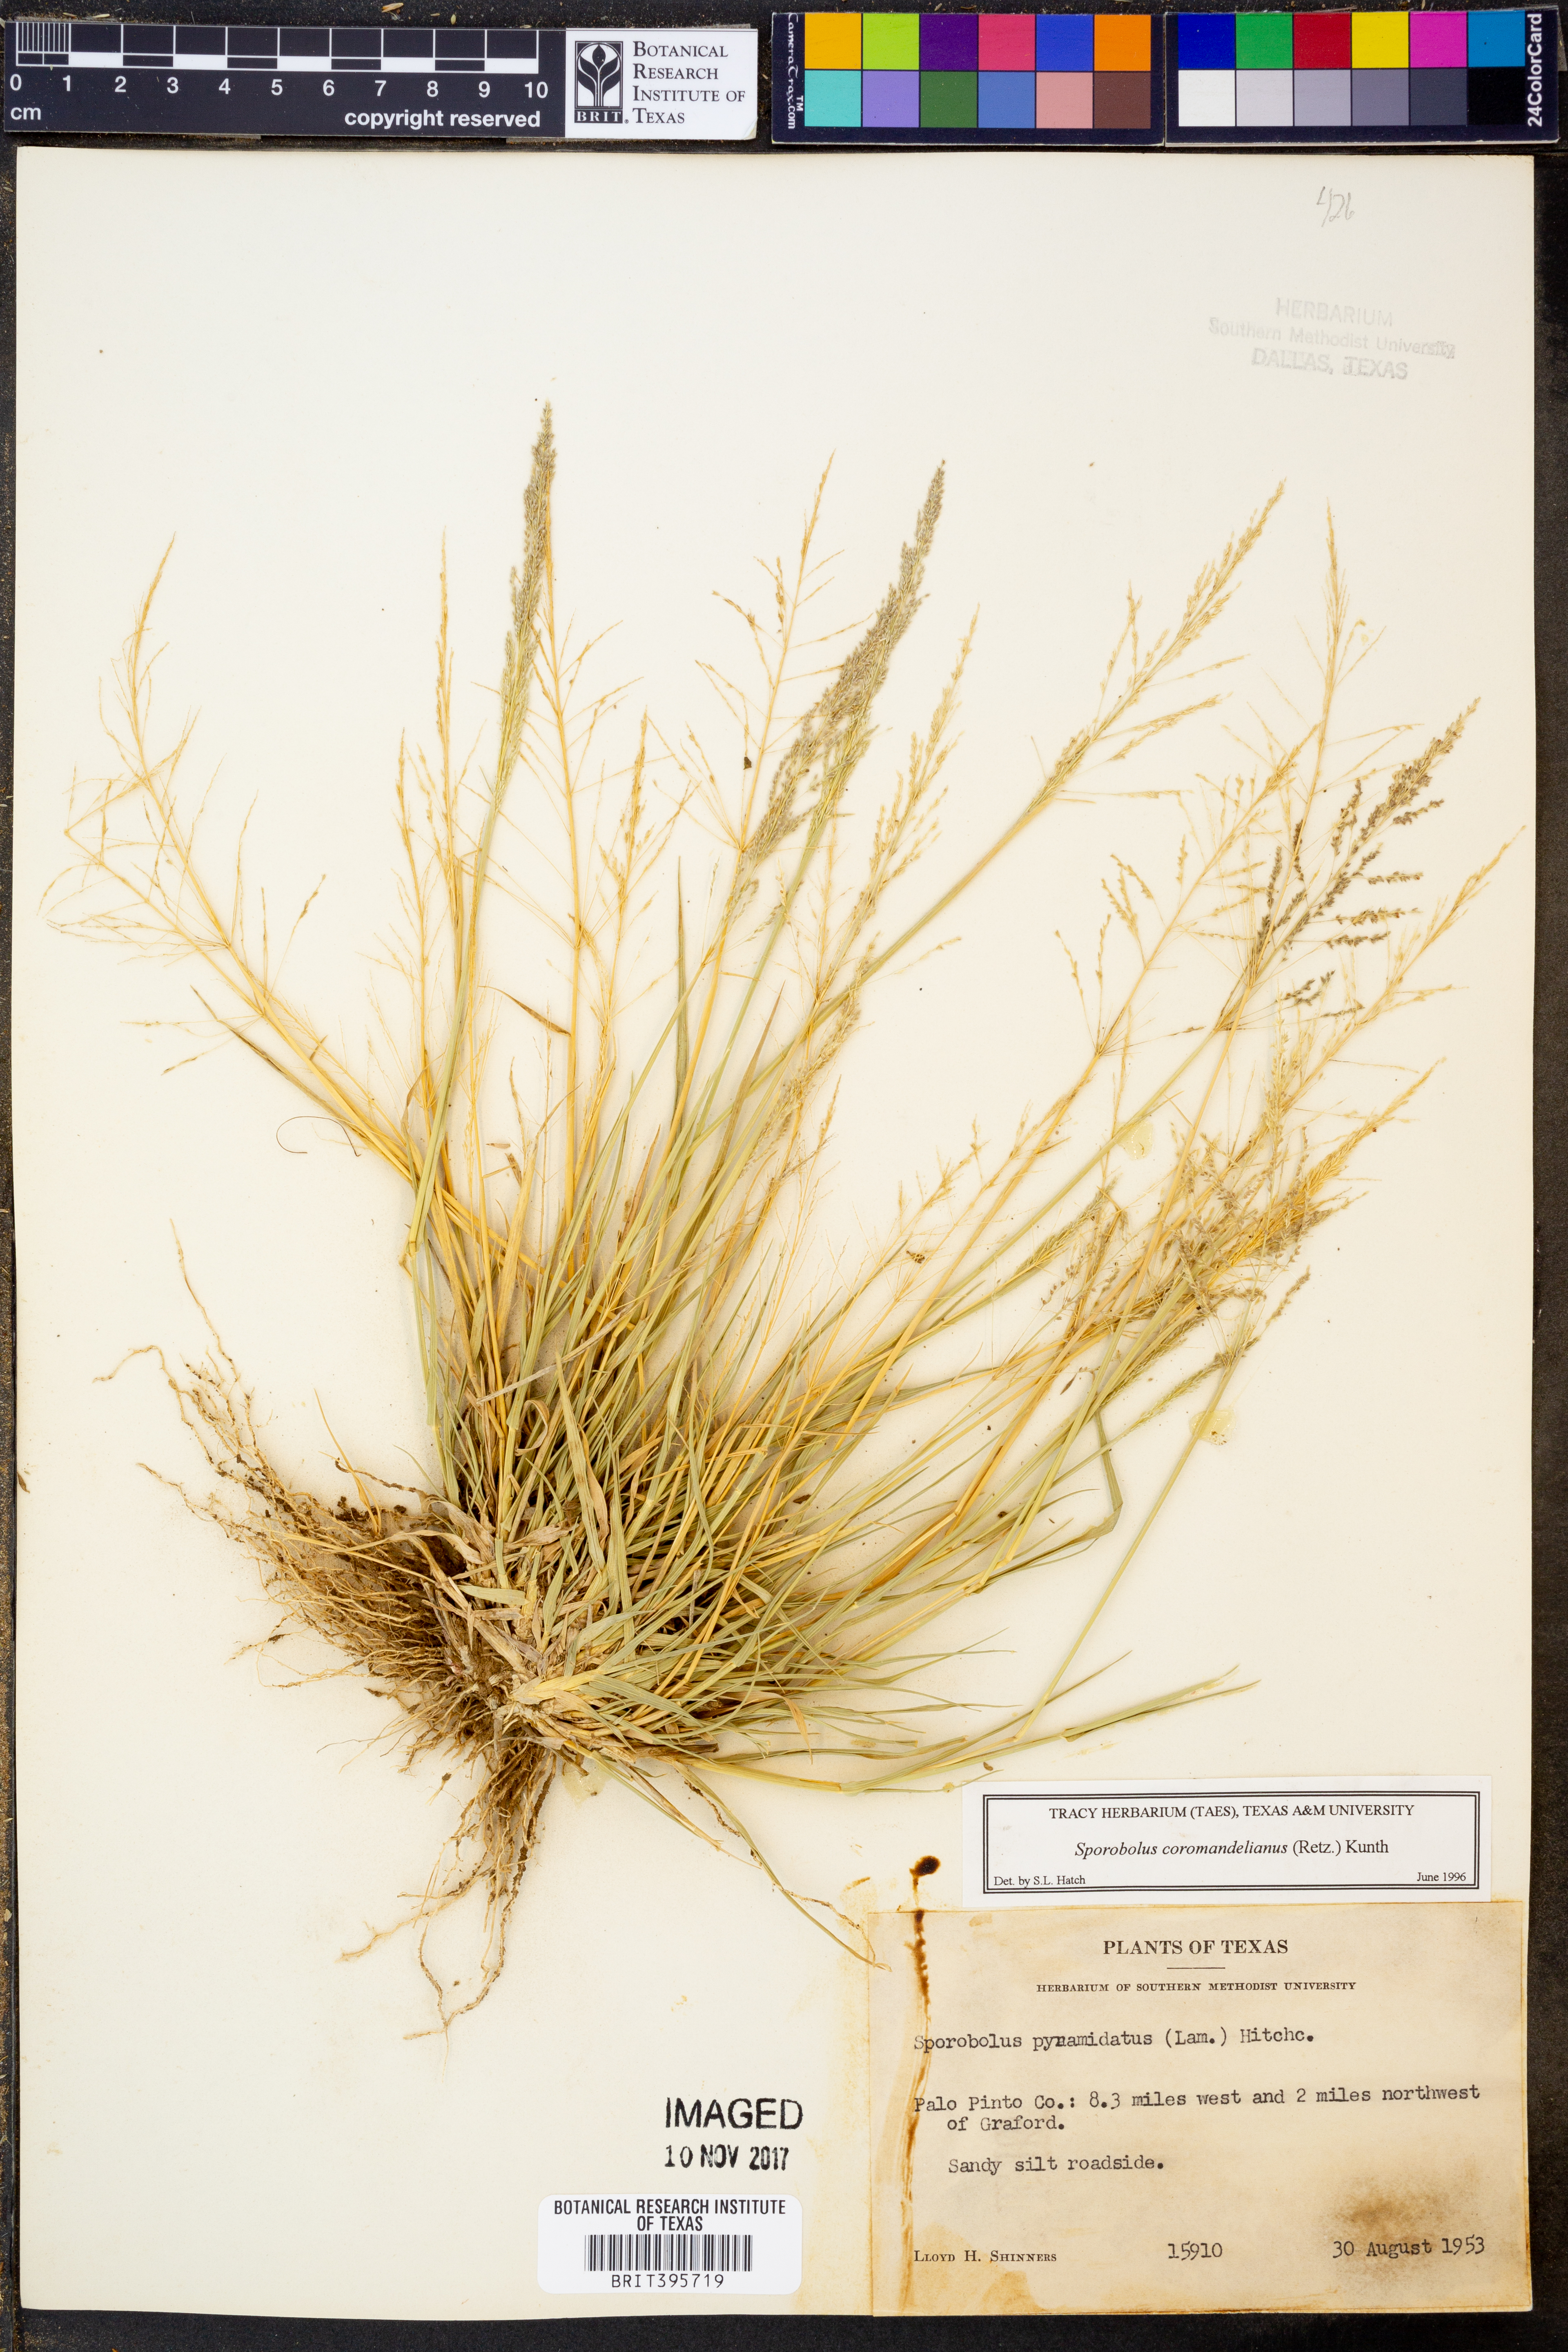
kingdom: Plantae
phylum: Tracheophyta
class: Liliopsida
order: Poales
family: Poaceae
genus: Sporobolus
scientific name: Sporobolus coromandelianus
